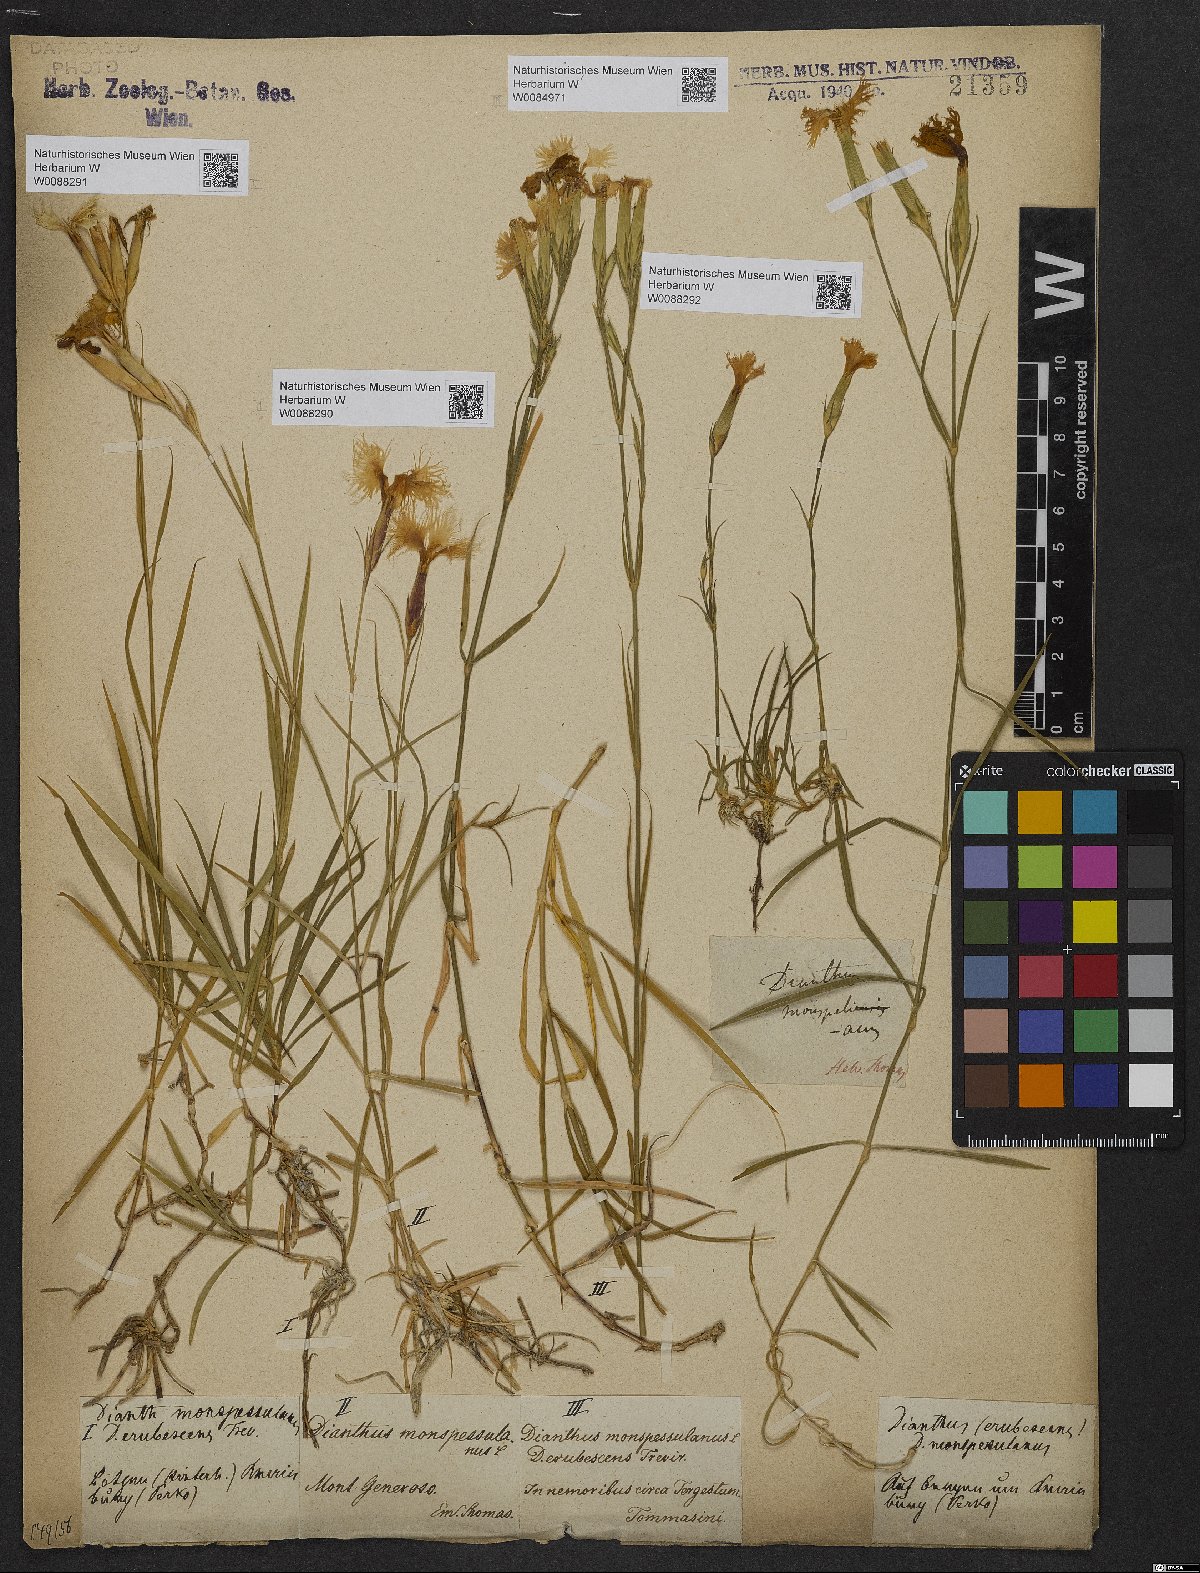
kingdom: Plantae
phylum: Tracheophyta
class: Magnoliopsida
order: Caryophyllales
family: Caryophyllaceae
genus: Dianthus
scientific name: Dianthus hyssopifolius
